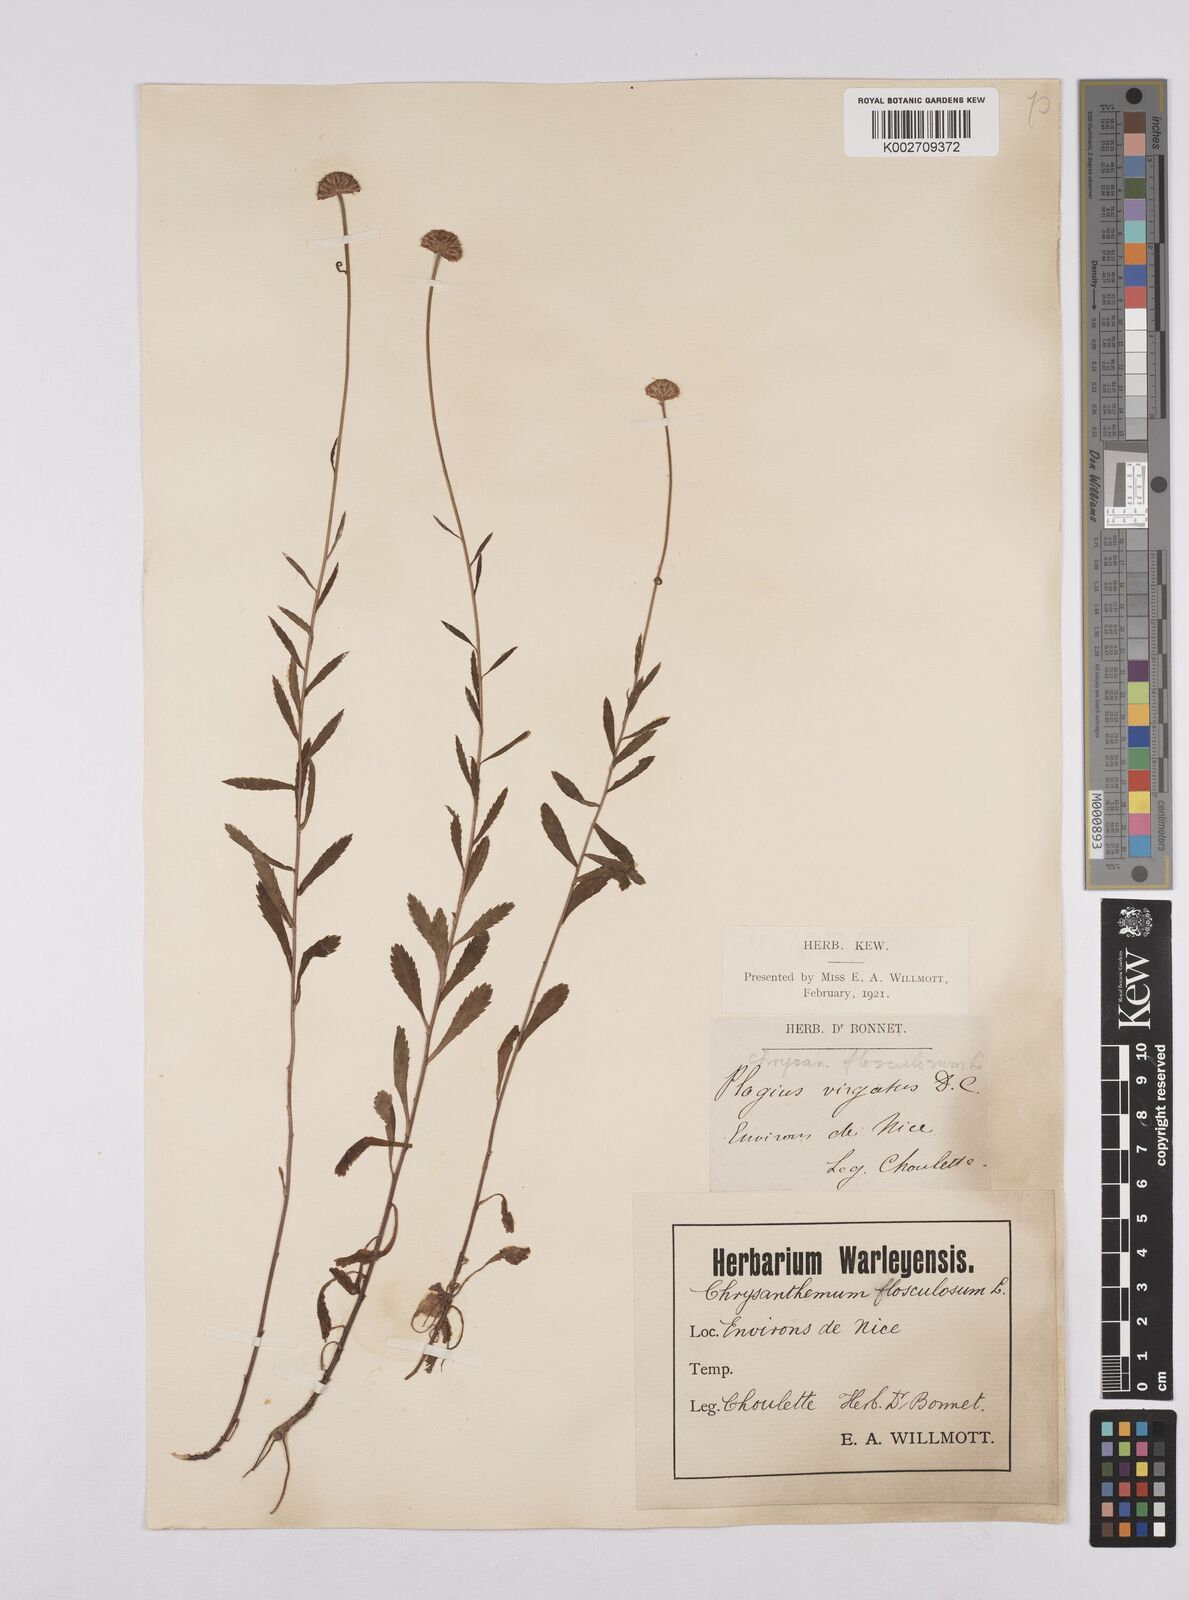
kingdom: Plantae
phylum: Tracheophyta
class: Magnoliopsida
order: Asterales
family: Asteraceae
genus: Leucanthemum
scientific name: Leucanthemum vulgare
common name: Oxeye daisy
